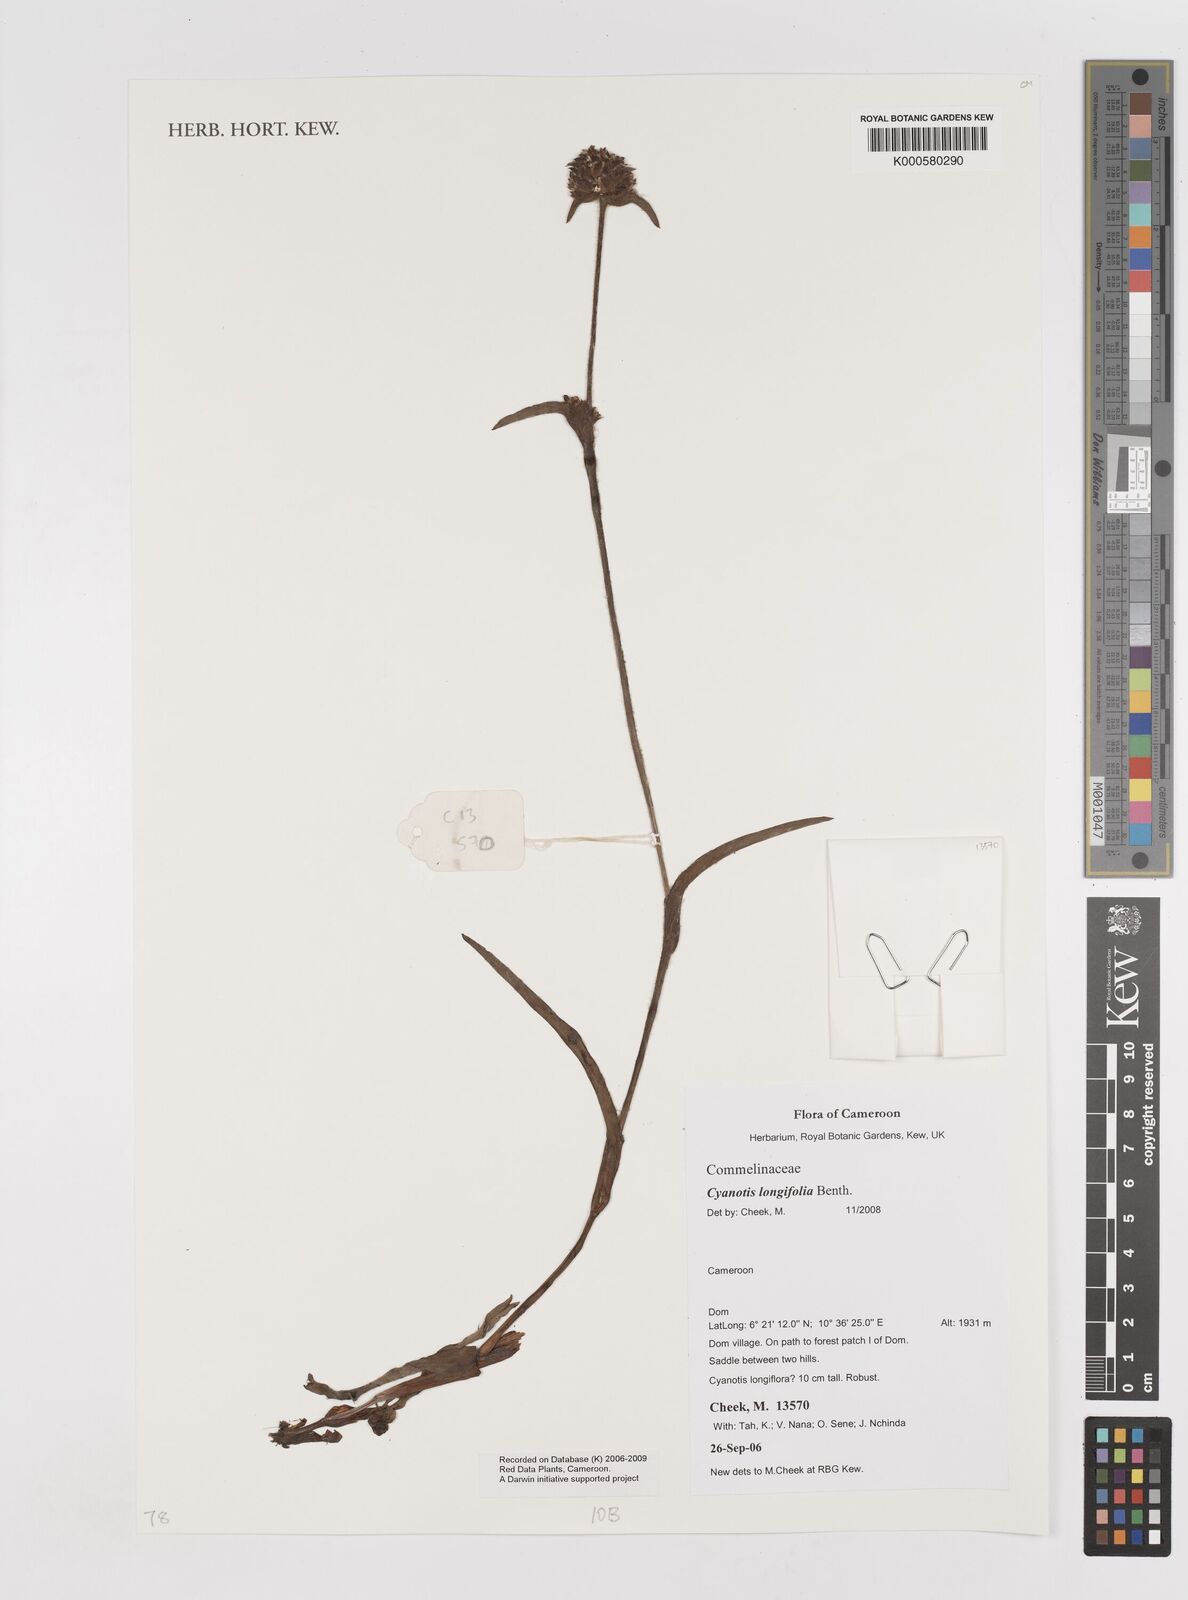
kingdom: Plantae
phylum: Tracheophyta
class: Liliopsida
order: Commelinales
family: Commelinaceae
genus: Cyanotis
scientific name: Cyanotis longifolia
